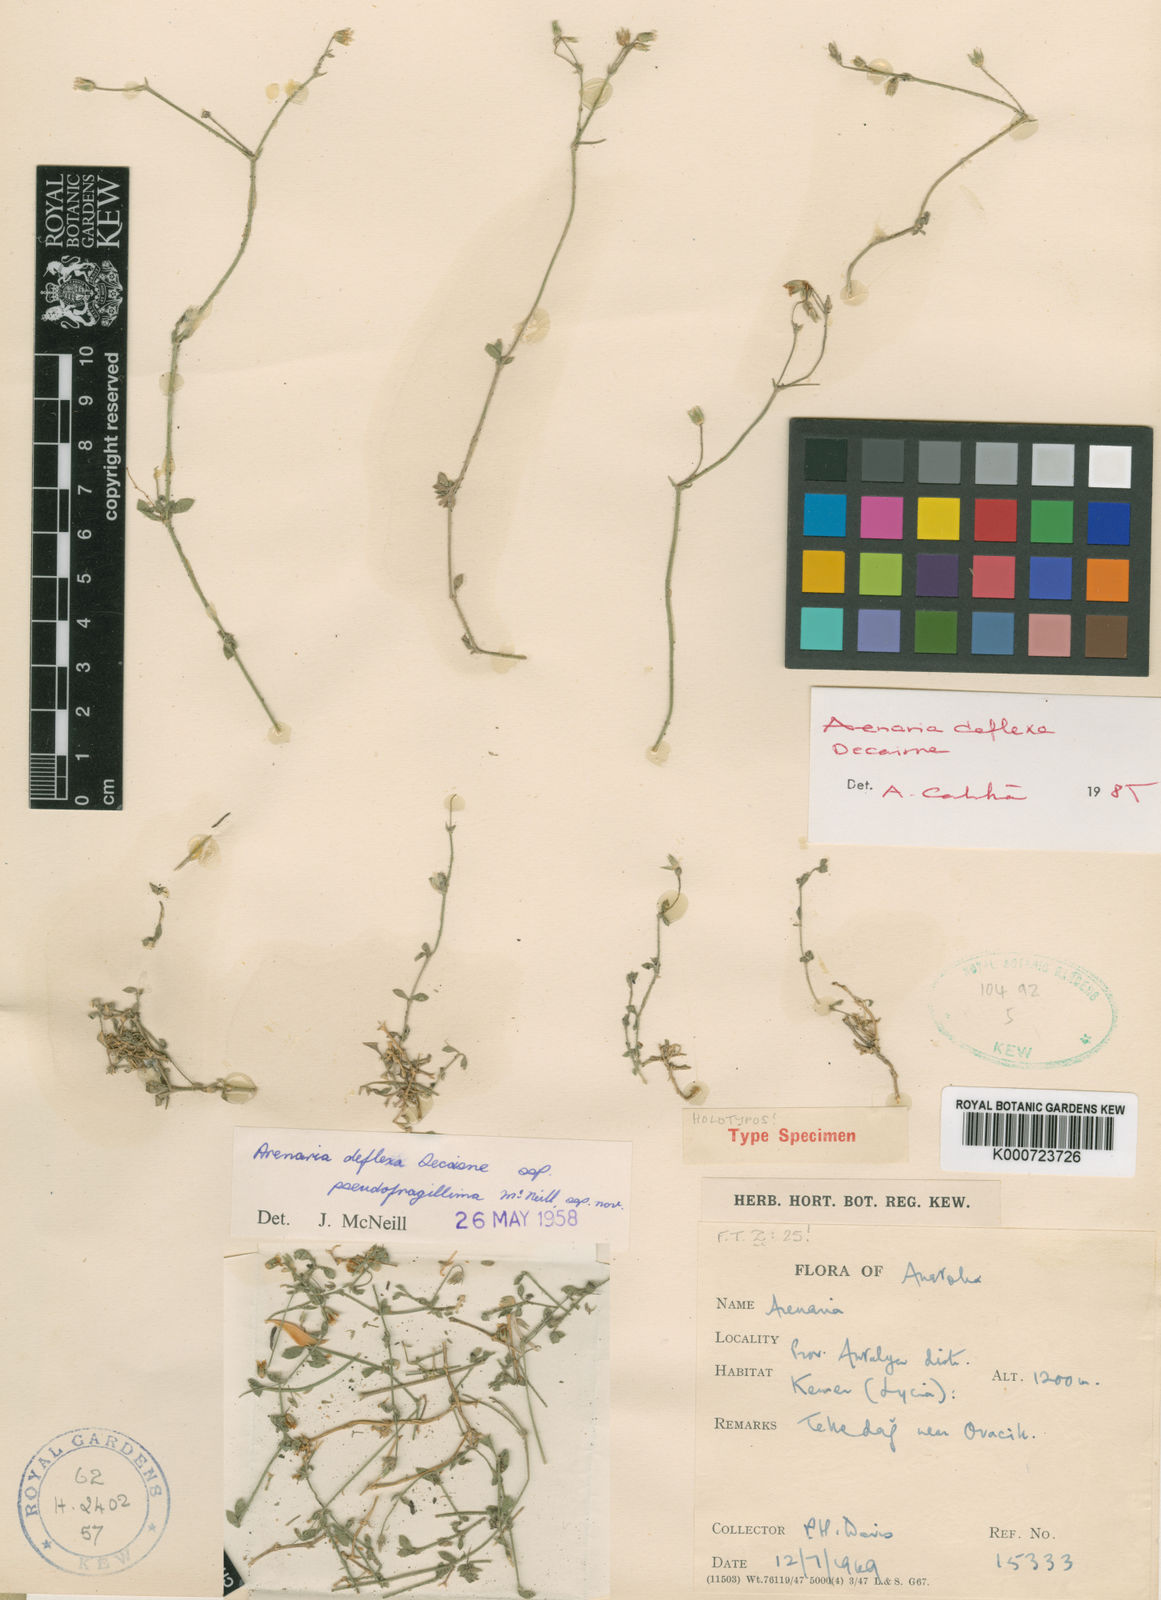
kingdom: Plantae
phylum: Tracheophyta
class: Magnoliopsida
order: Caryophyllales
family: Caryophyllaceae
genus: Arenaria
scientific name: Arenaria deflexa
